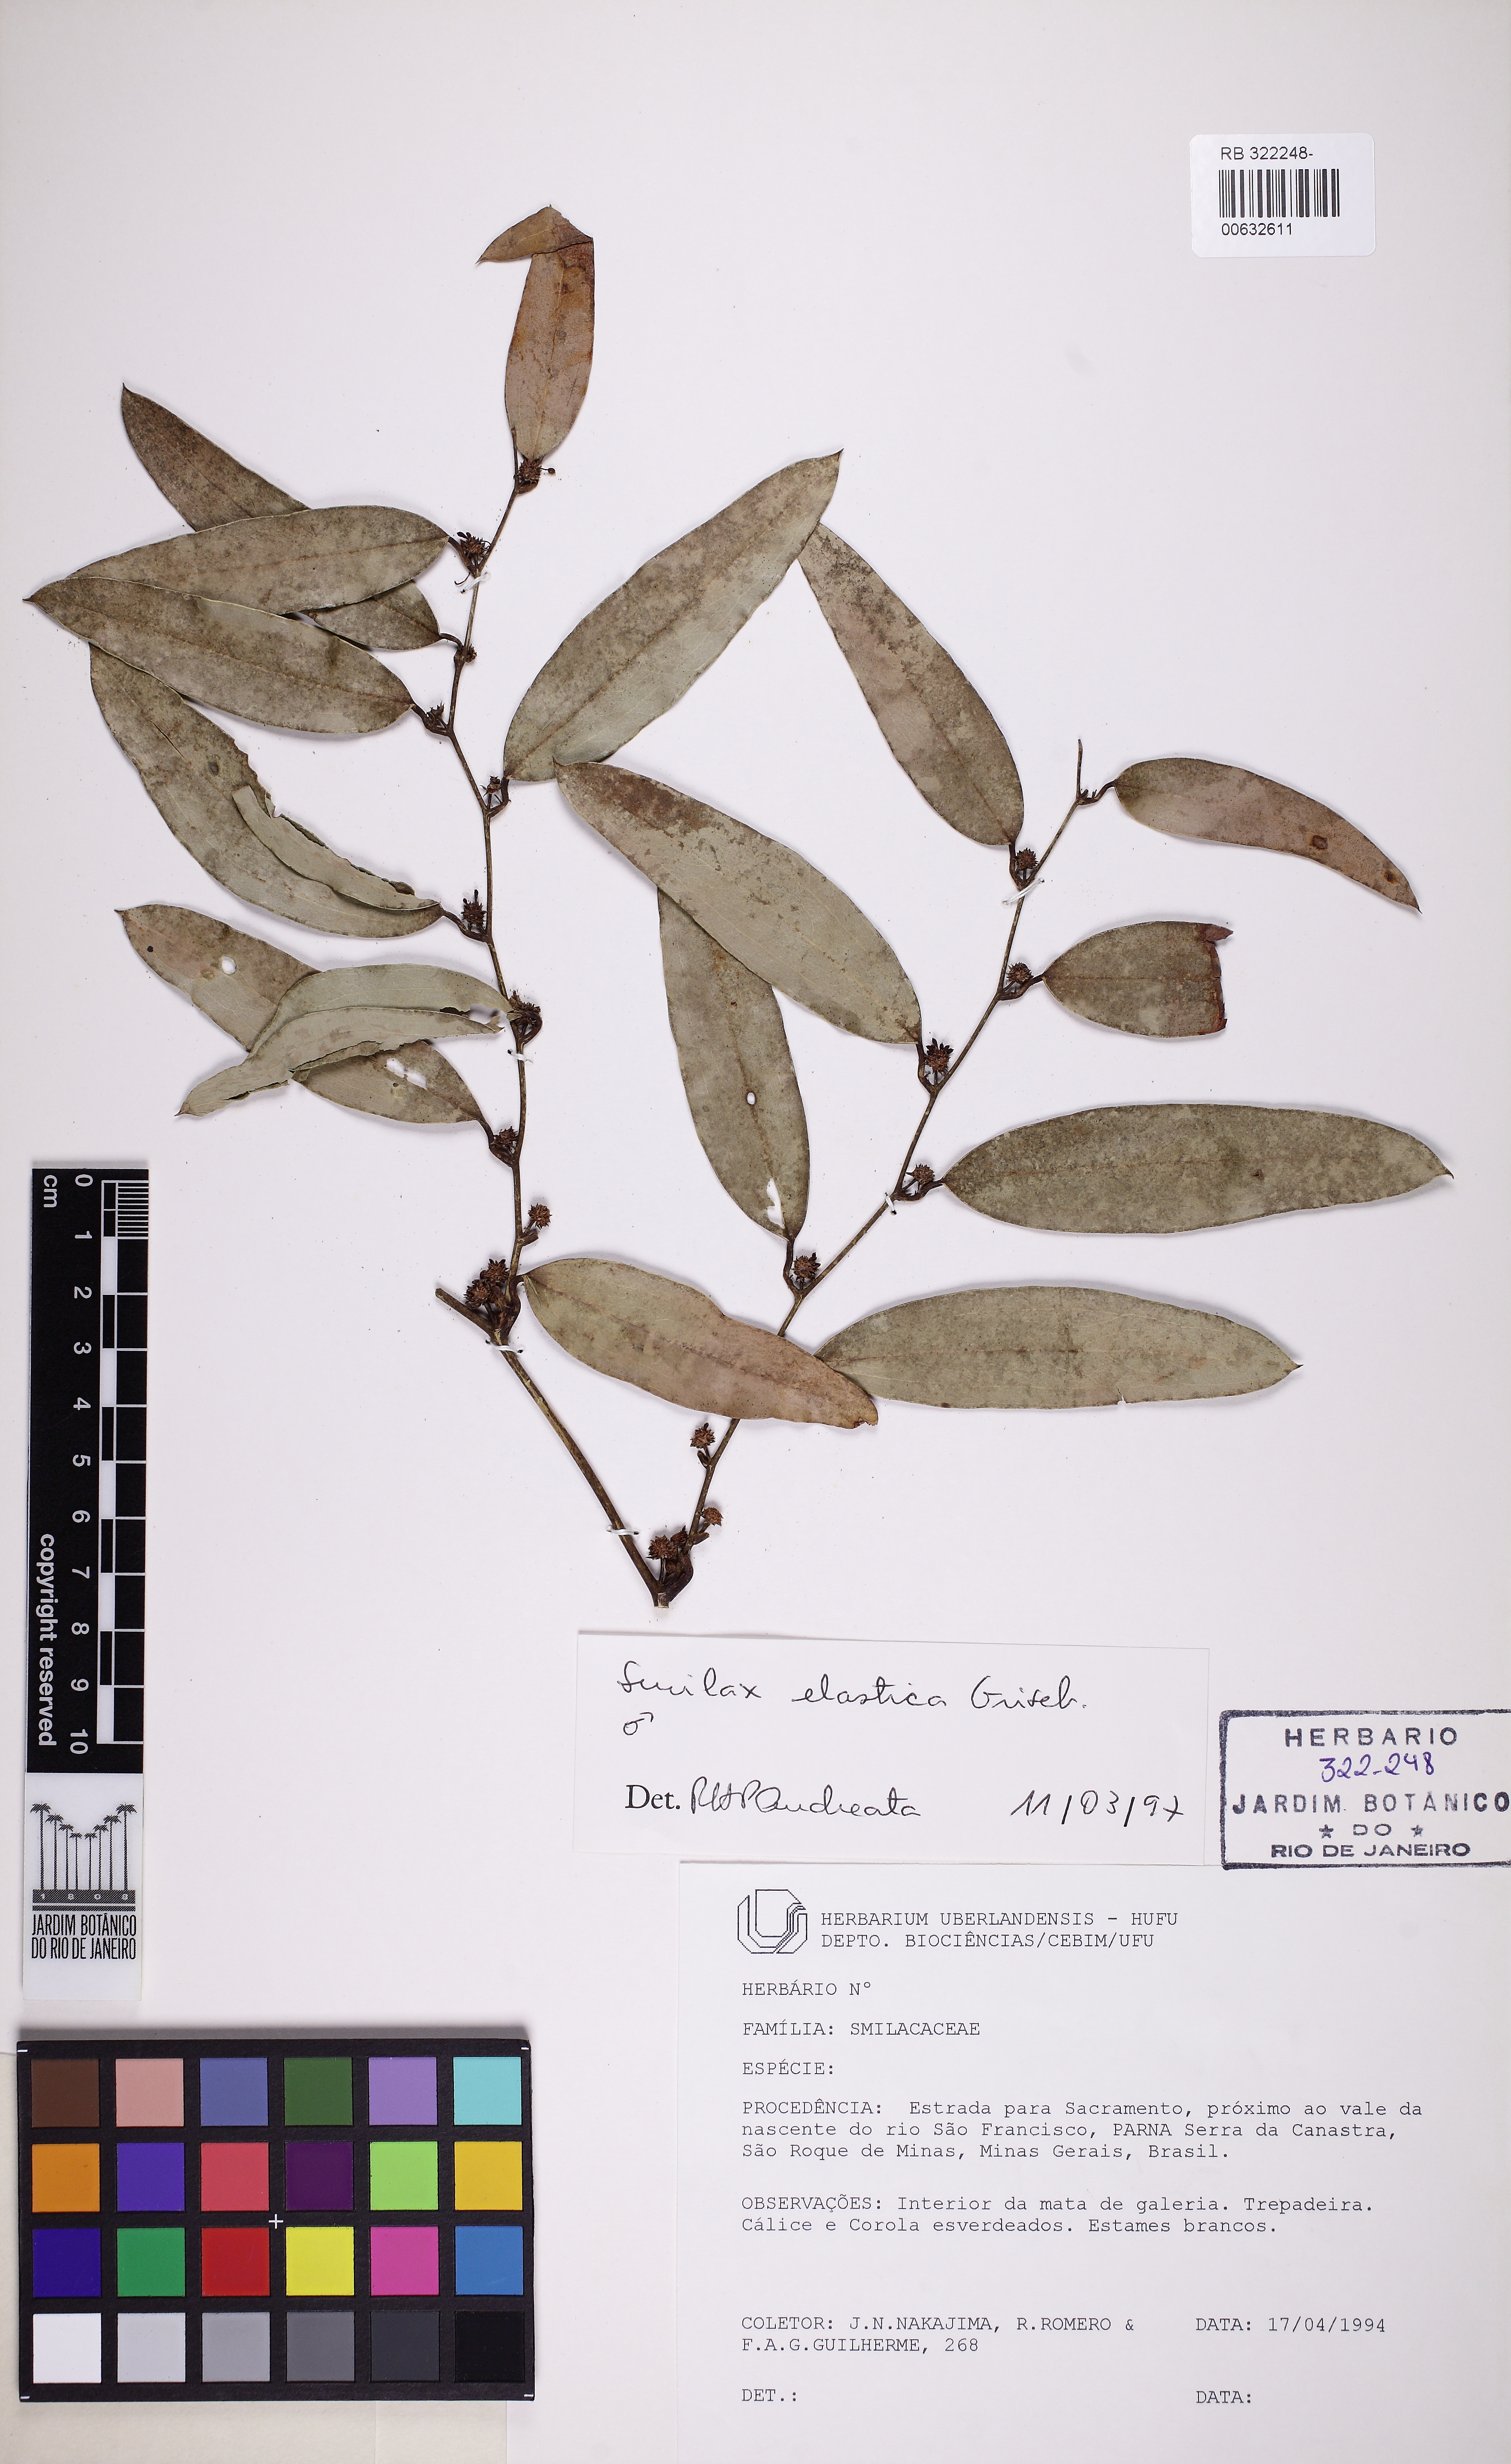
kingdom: Plantae
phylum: Tracheophyta
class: Liliopsida
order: Liliales
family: Smilacaceae
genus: Smilax
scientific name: Smilax elastica
